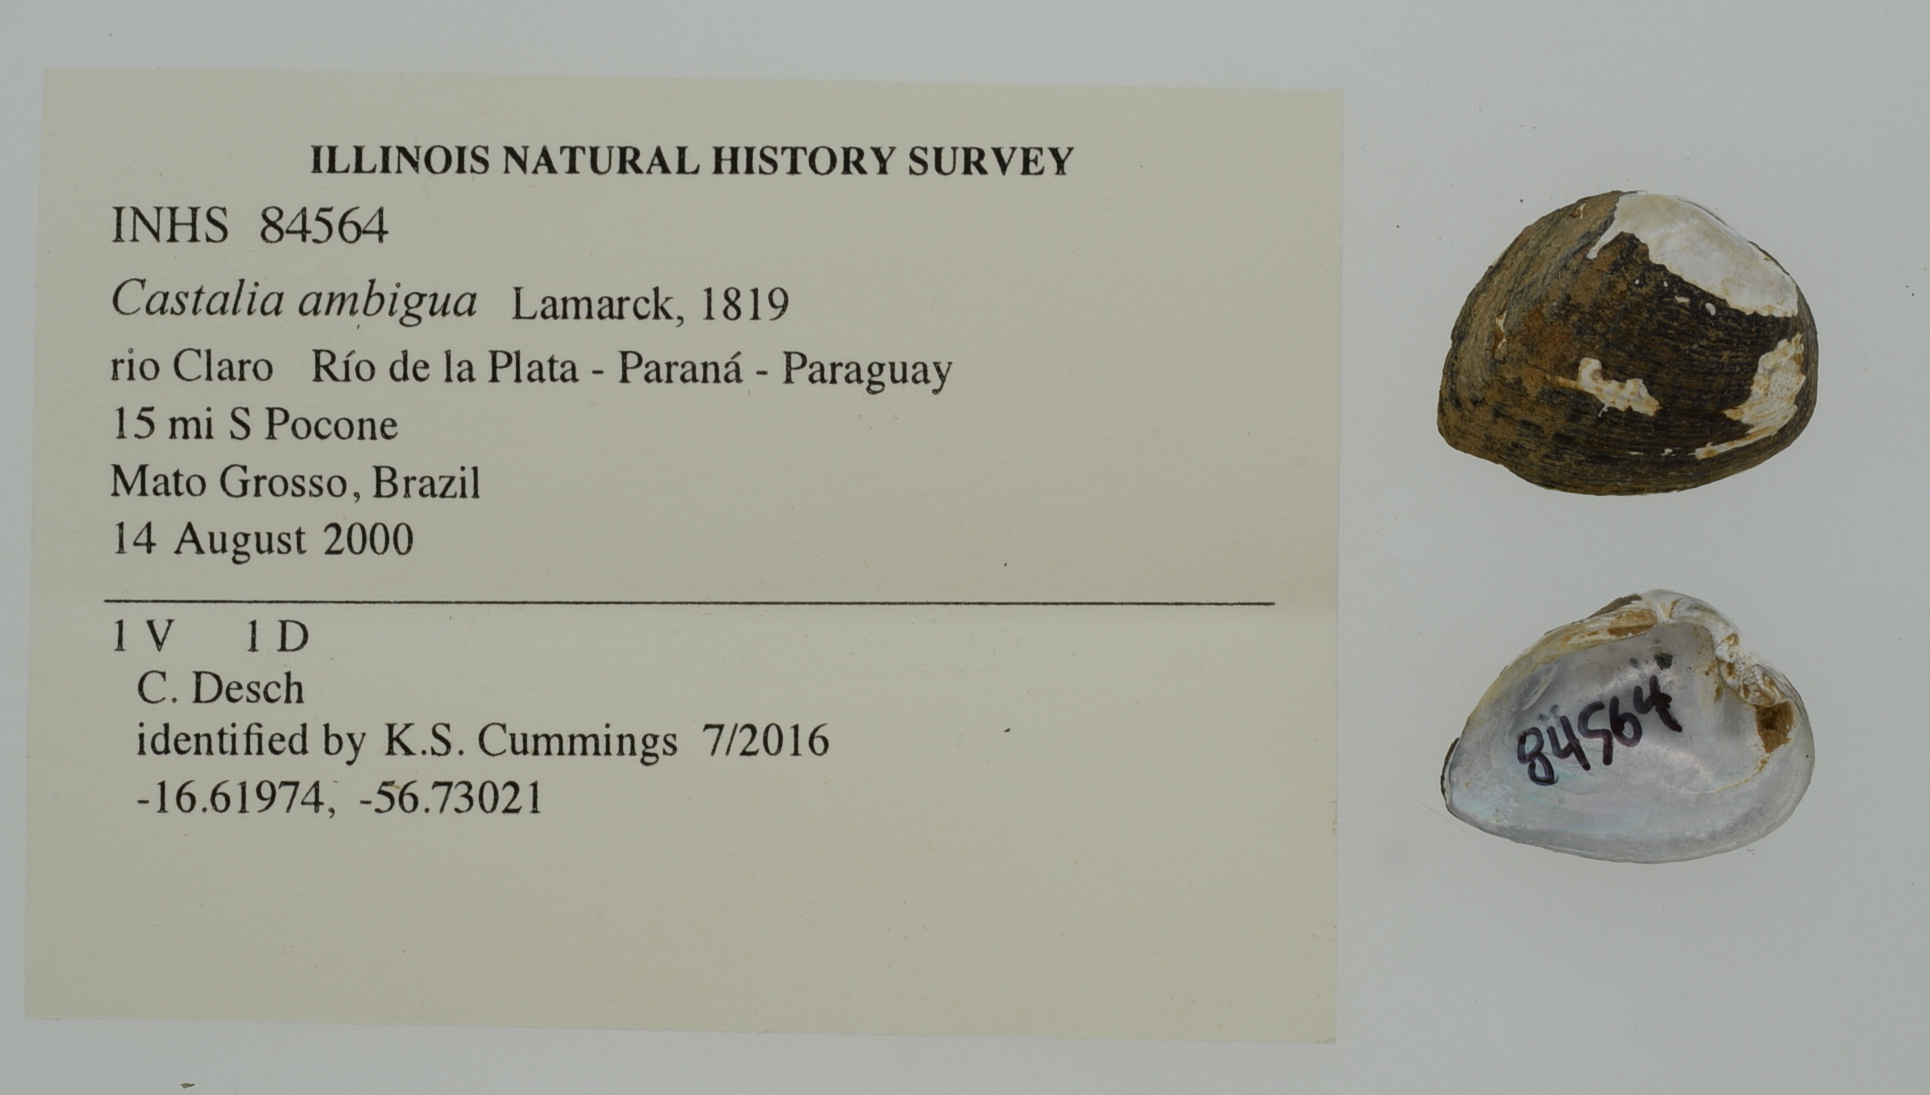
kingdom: Animalia
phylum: Mollusca
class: Bivalvia
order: Unionida
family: Hyriidae
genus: Castalia
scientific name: Castalia inflata
